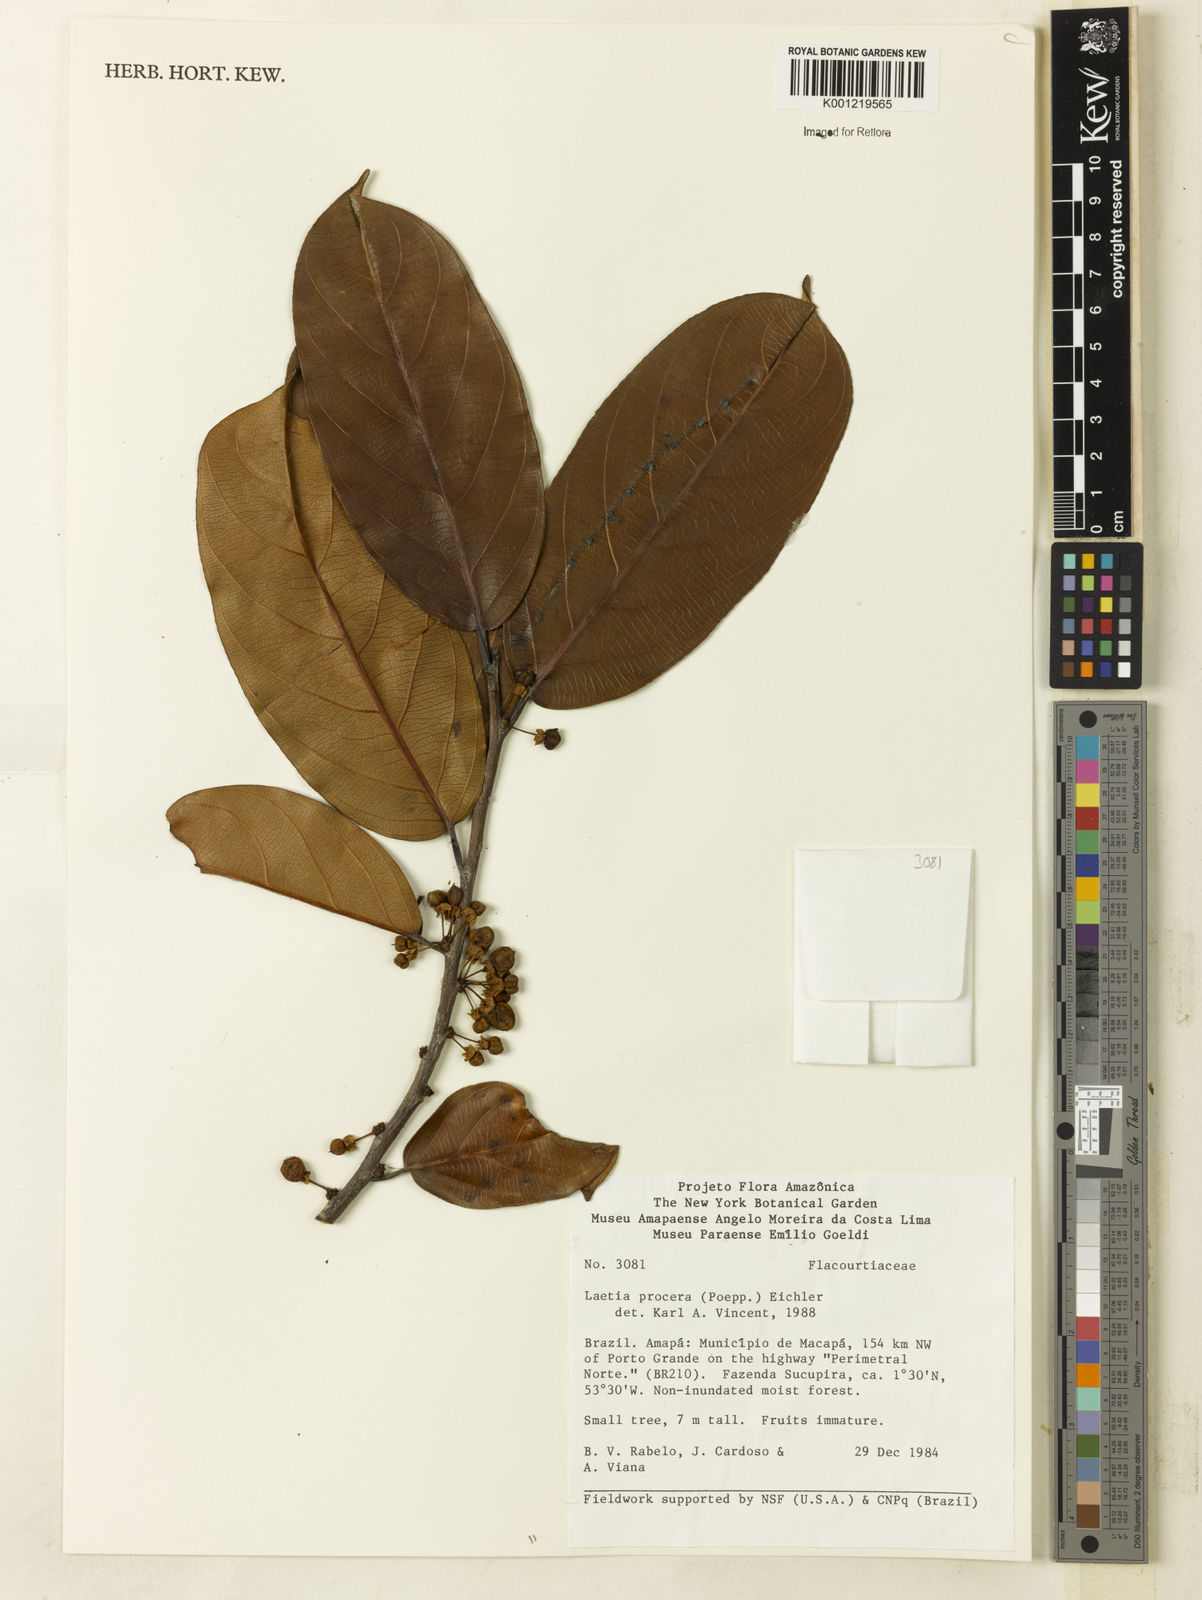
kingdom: Plantae
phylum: Tracheophyta
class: Magnoliopsida
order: Malpighiales
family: Salicaceae
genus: Casearia
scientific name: Casearia bicolor
